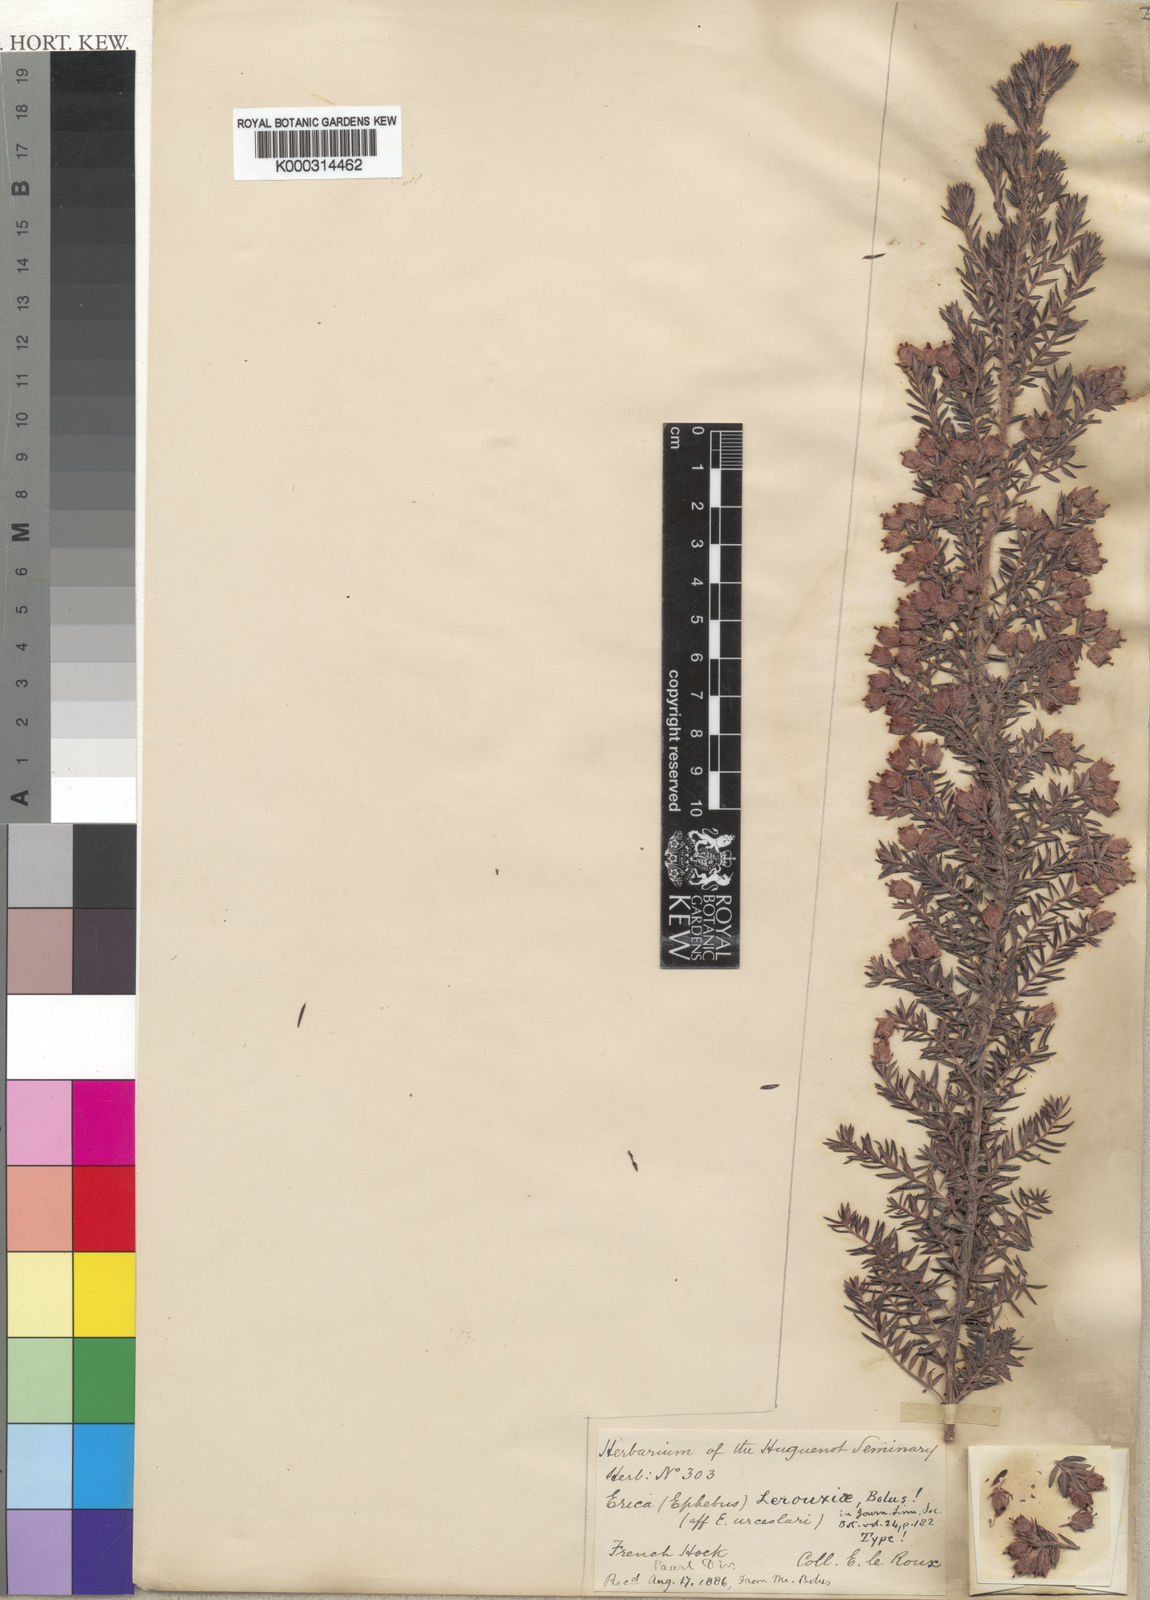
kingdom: Plantae
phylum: Tracheophyta
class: Magnoliopsida
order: Ericales
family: Ericaceae
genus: Erica
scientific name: Erica lerouxiae
